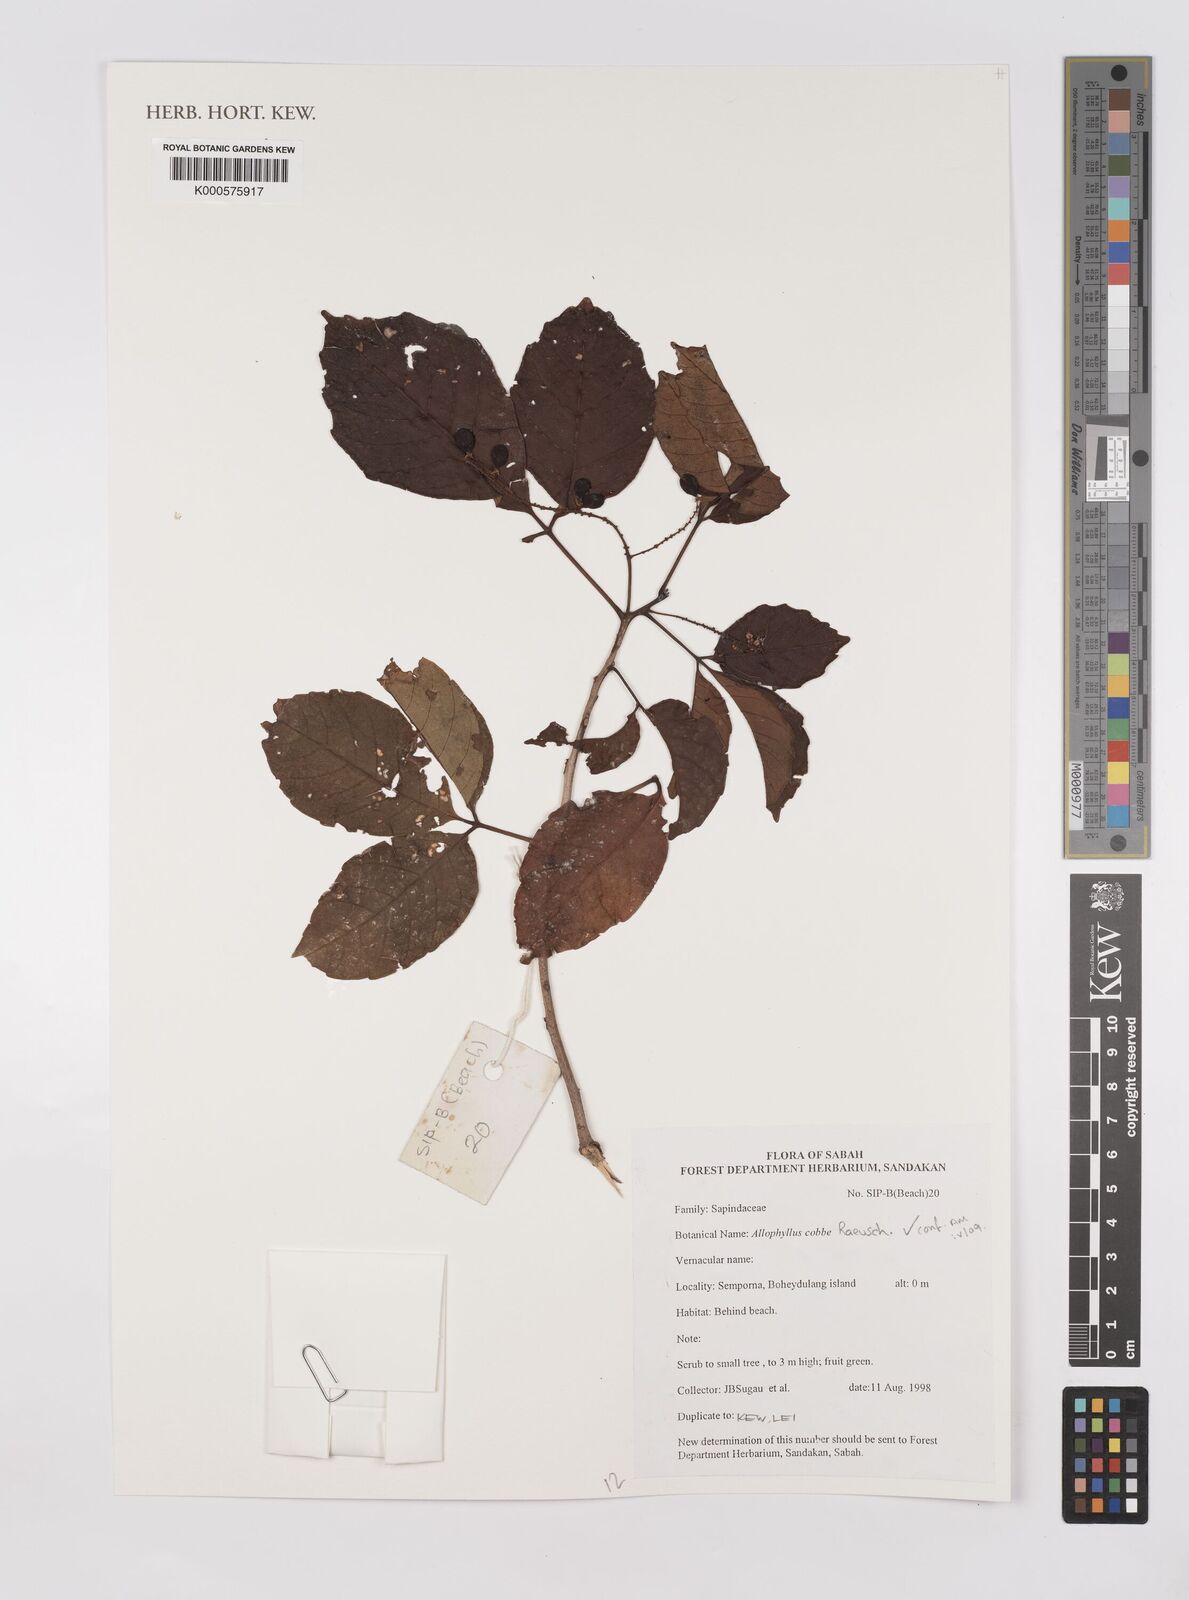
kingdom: Plantae
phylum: Tracheophyta
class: Magnoliopsida
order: Sapindales
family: Sapindaceae
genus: Allophylus
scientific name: Allophylus
